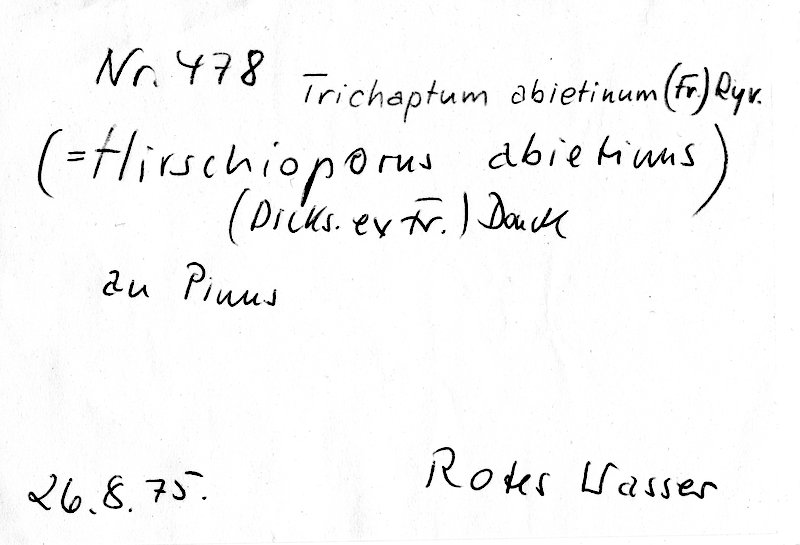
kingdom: Plantae
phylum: Tracheophyta
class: Pinopsida
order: Pinales
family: Pinaceae
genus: Pinus
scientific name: Pinus
